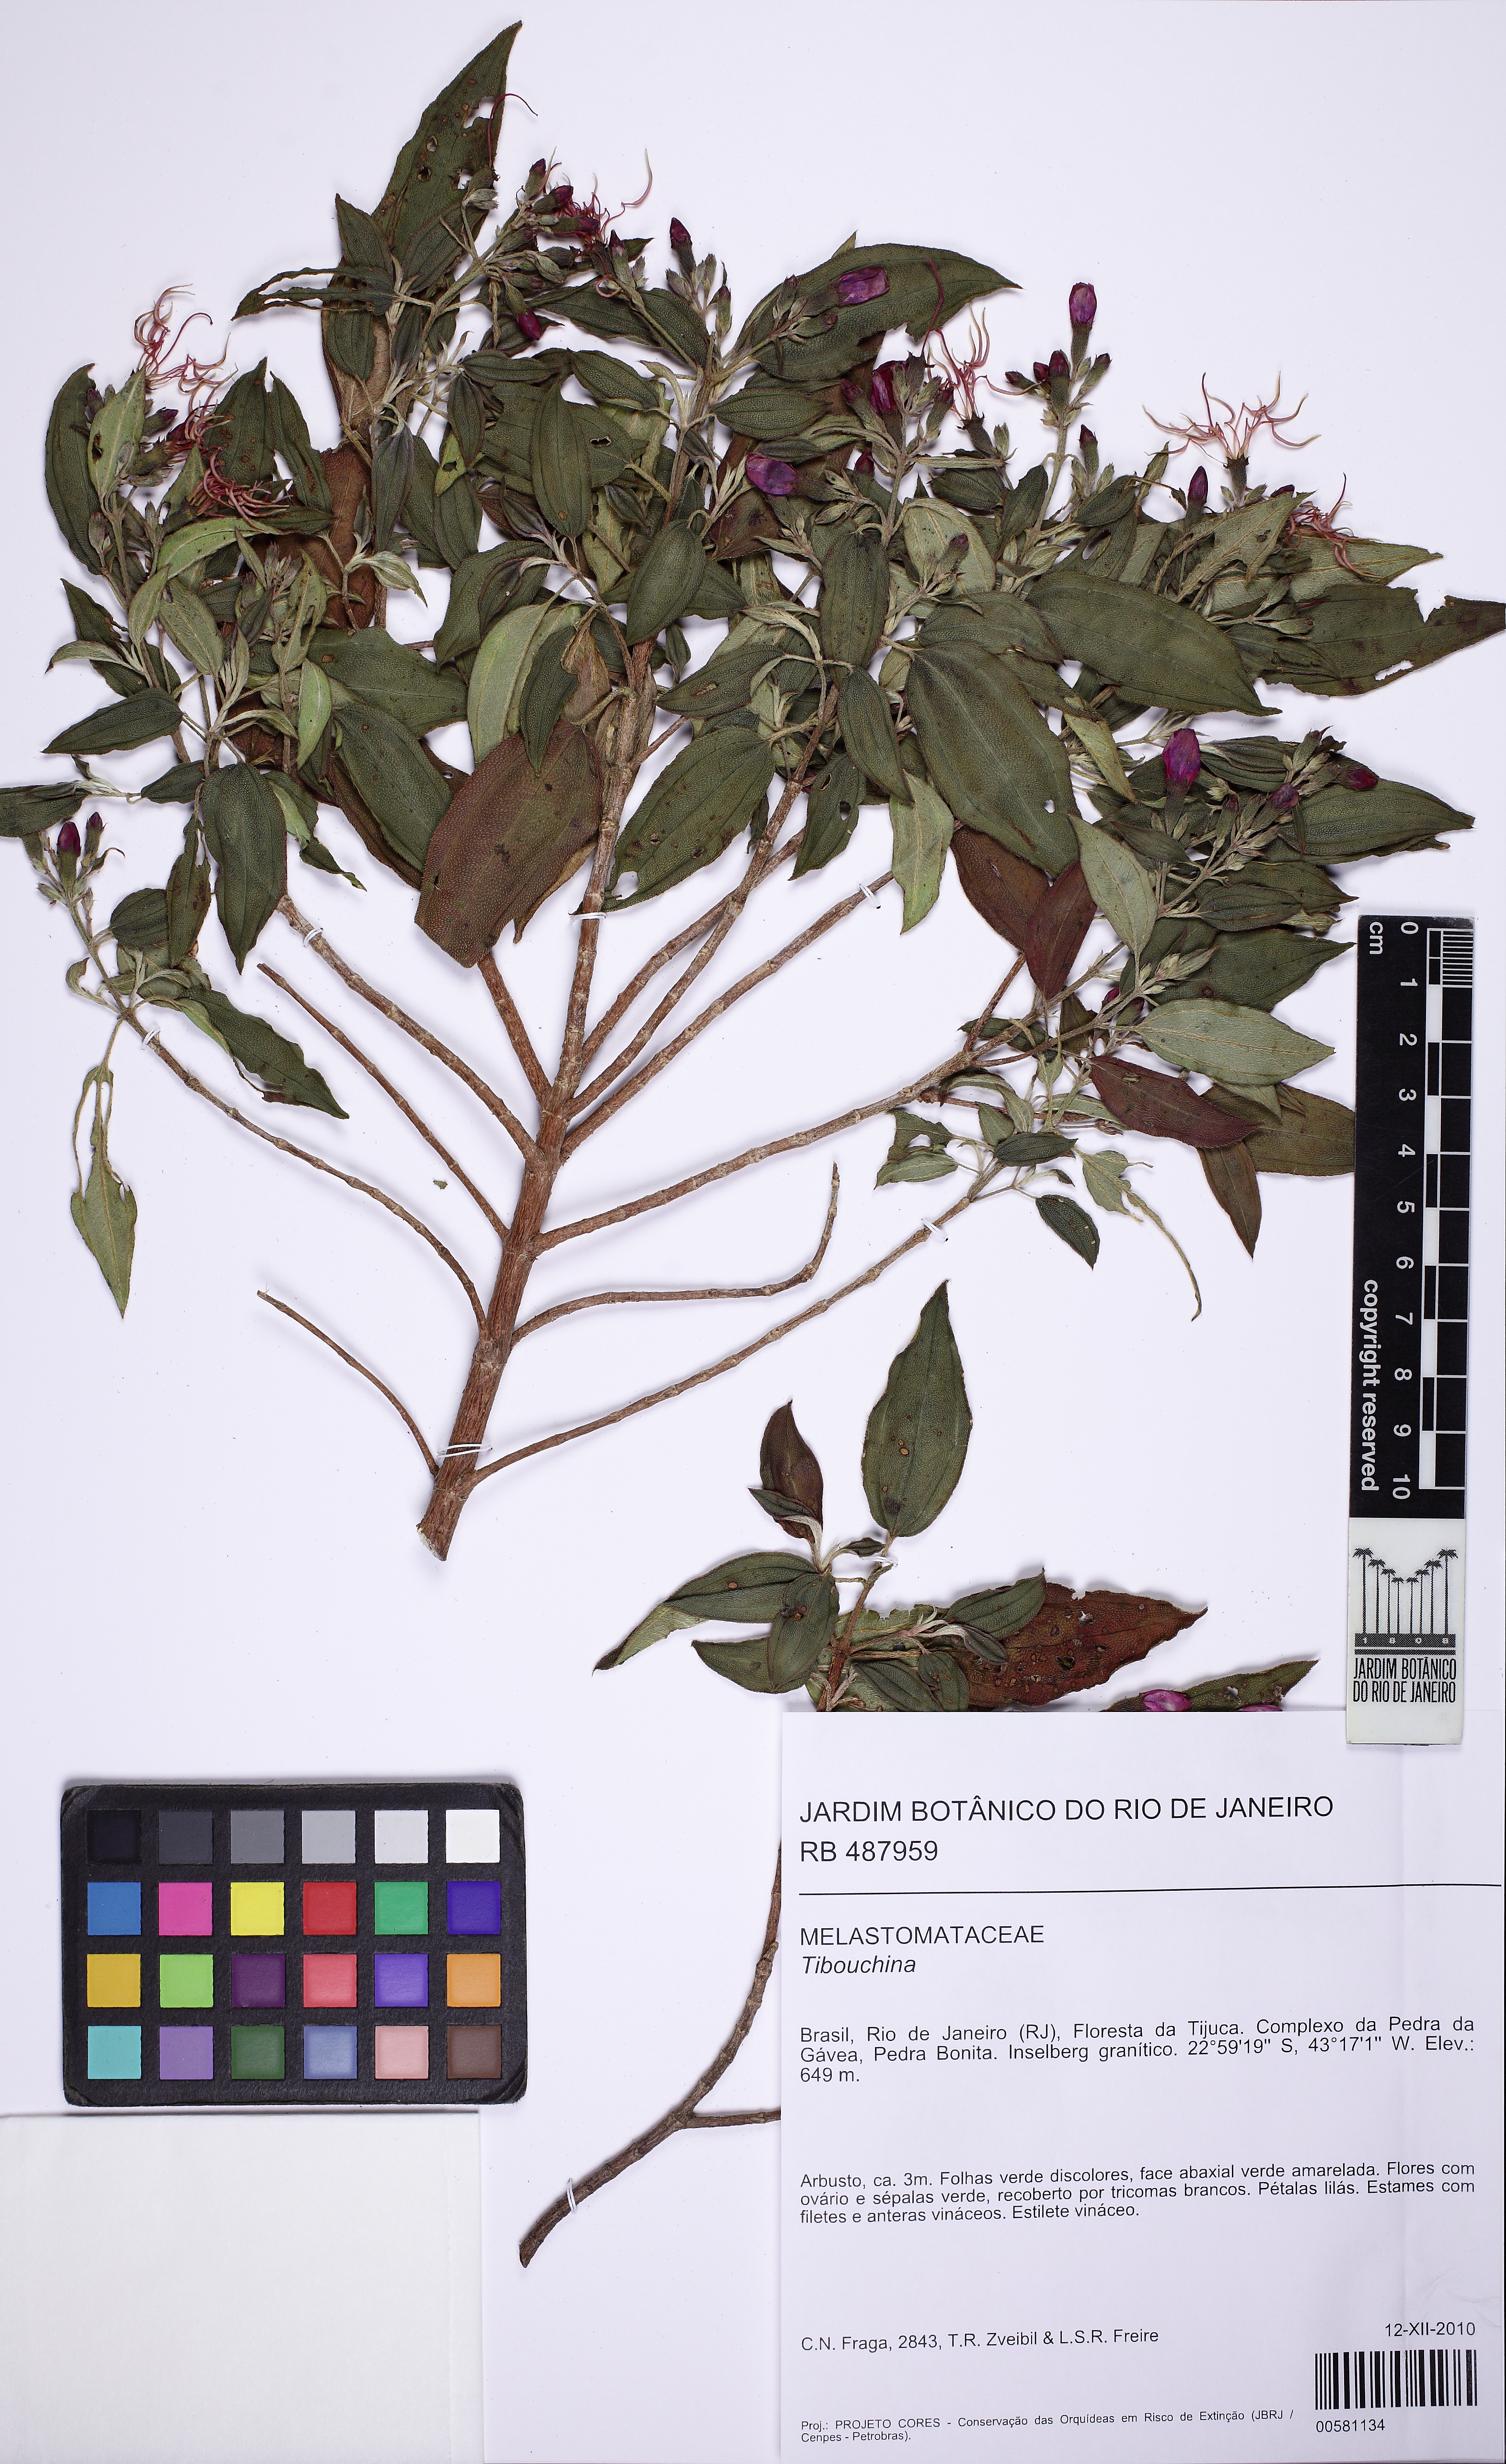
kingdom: Plantae
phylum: Tracheophyta
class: Magnoliopsida
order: Myrtales
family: Melastomataceae
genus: Pleroma
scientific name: Pleroma vimineum
